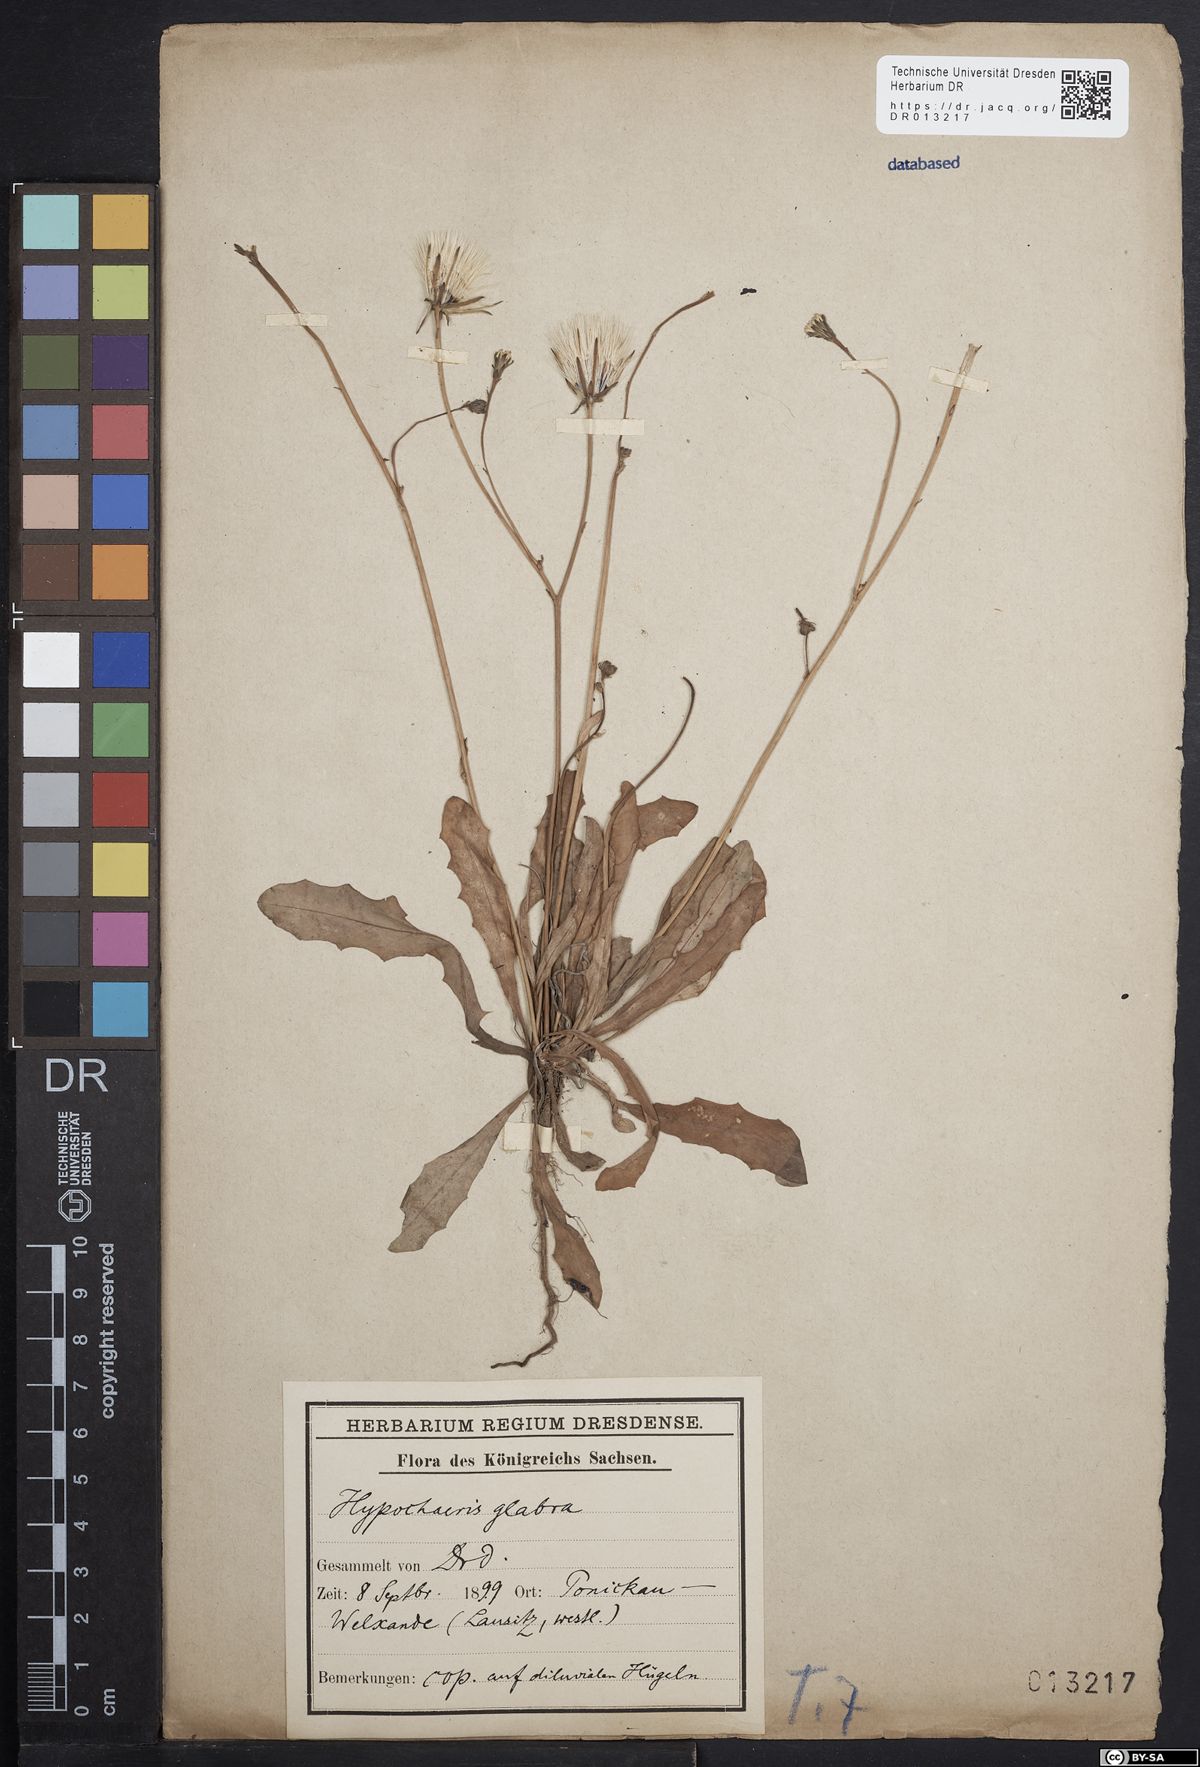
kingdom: Plantae
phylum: Tracheophyta
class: Magnoliopsida
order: Asterales
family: Asteraceae
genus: Hypochaeris
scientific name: Hypochaeris glabra
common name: Smooth catsear
